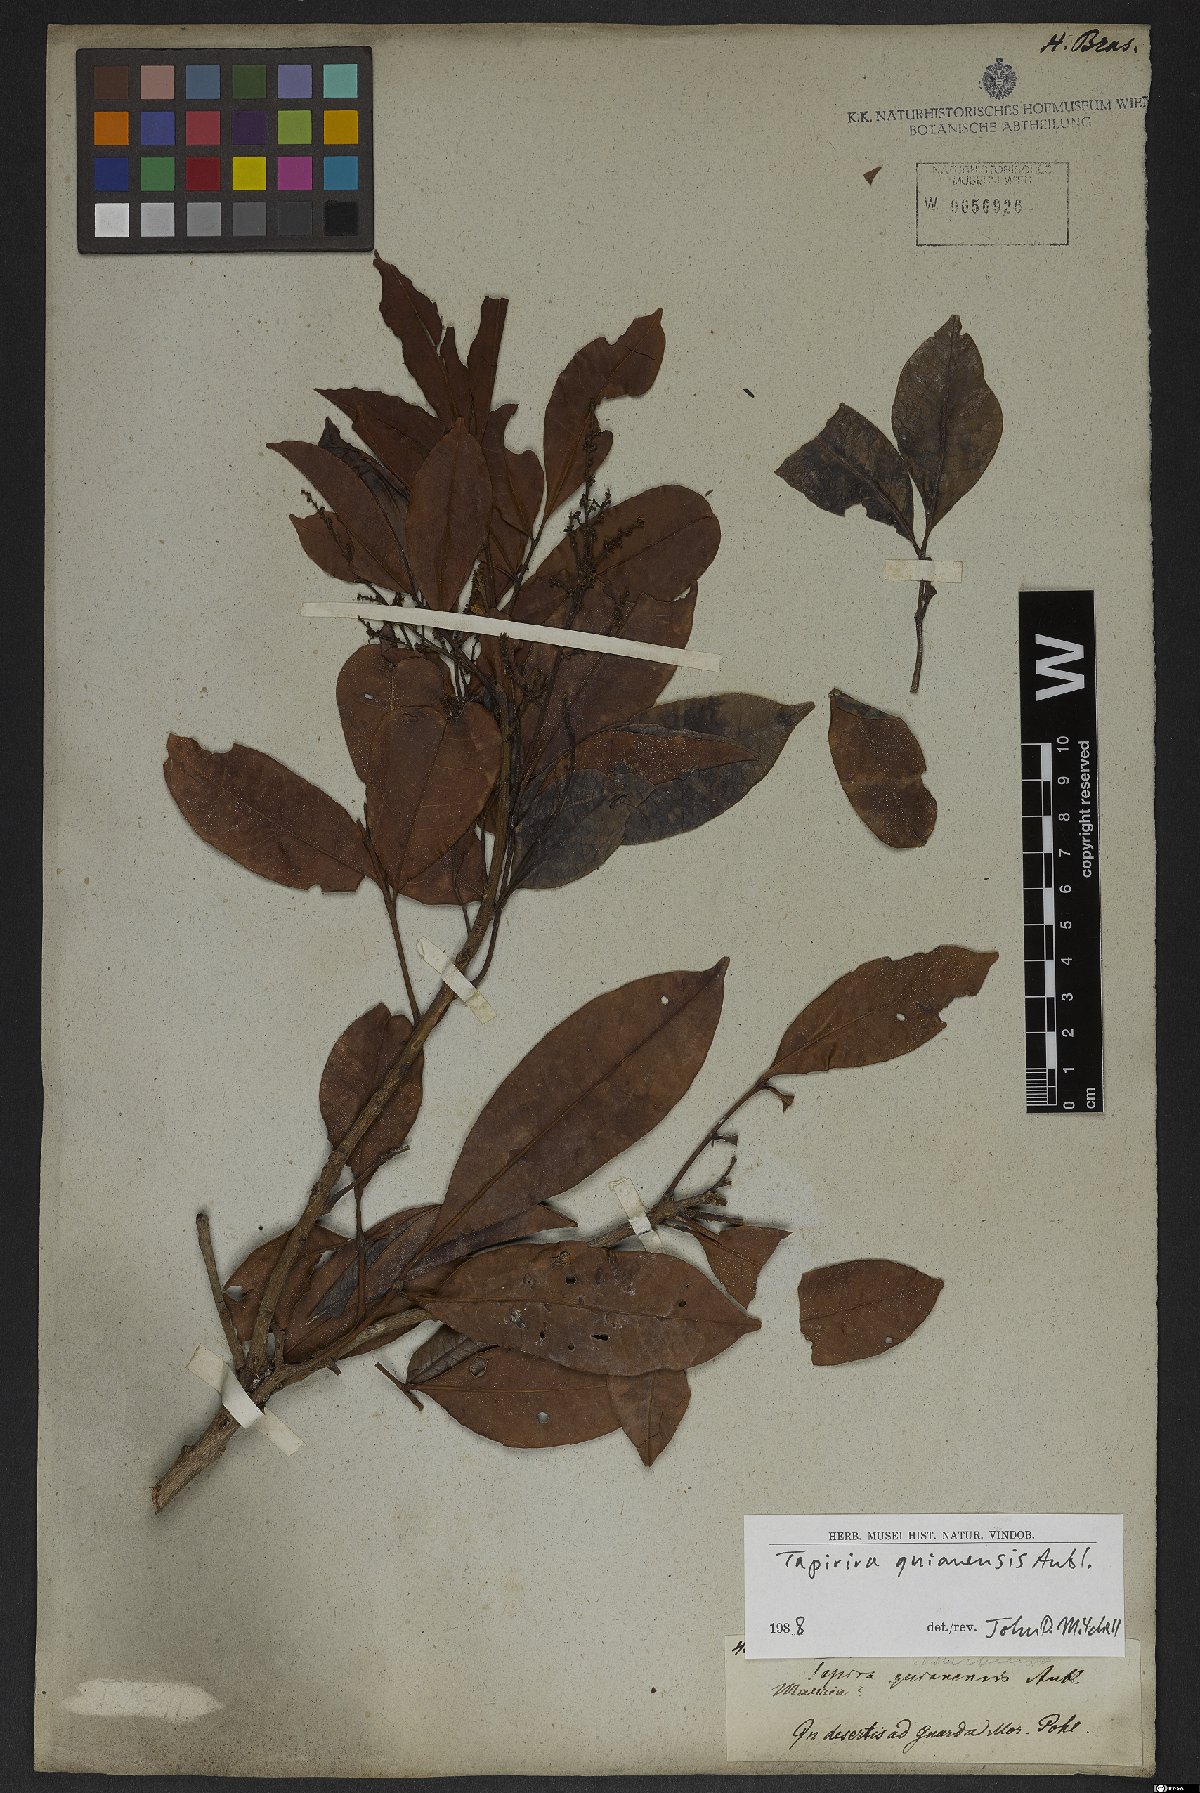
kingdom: Plantae
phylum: Tracheophyta
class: Magnoliopsida
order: Sapindales
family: Anacardiaceae
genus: Tapirira
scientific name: Tapirira guianensis
